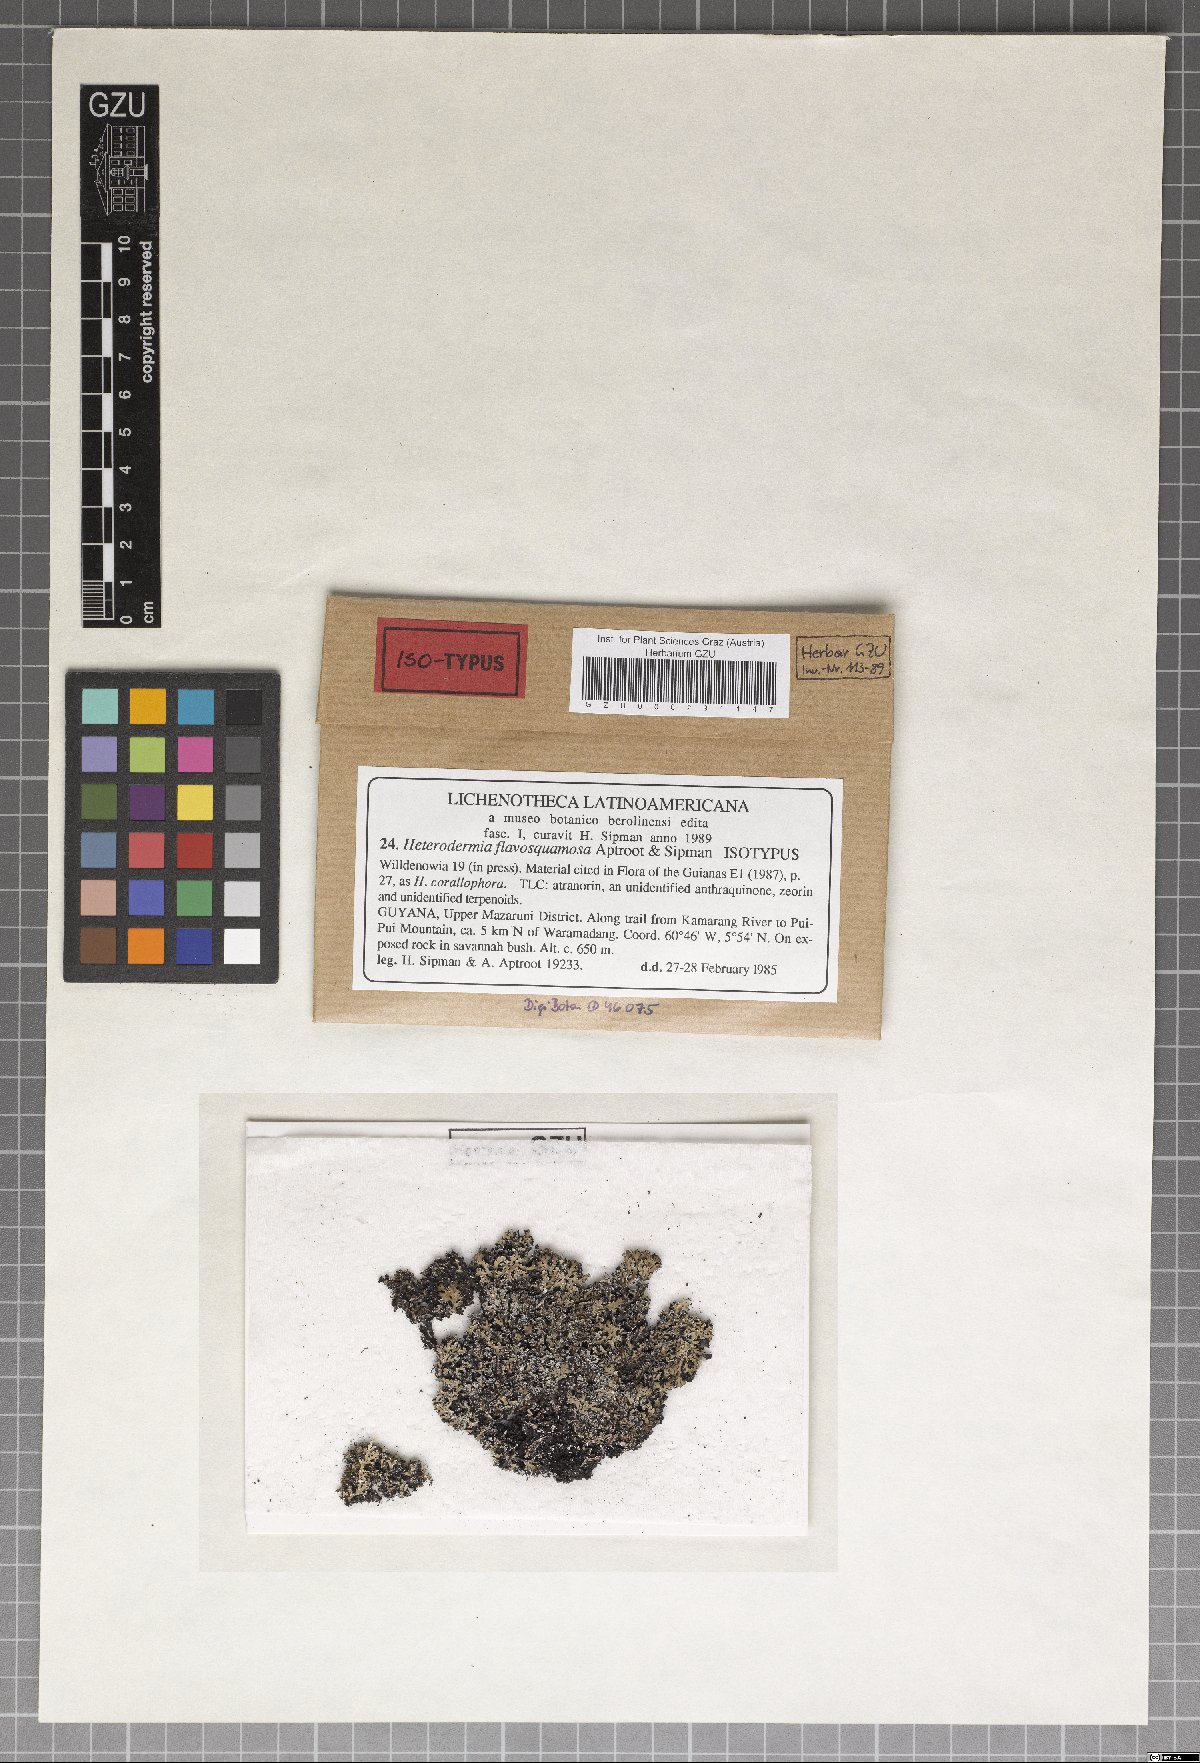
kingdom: Fungi
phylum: Ascomycota
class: Lecanoromycetes
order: Caliciales
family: Physciaceae
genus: Heterodermia
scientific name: Heterodermia flavosquamosa
